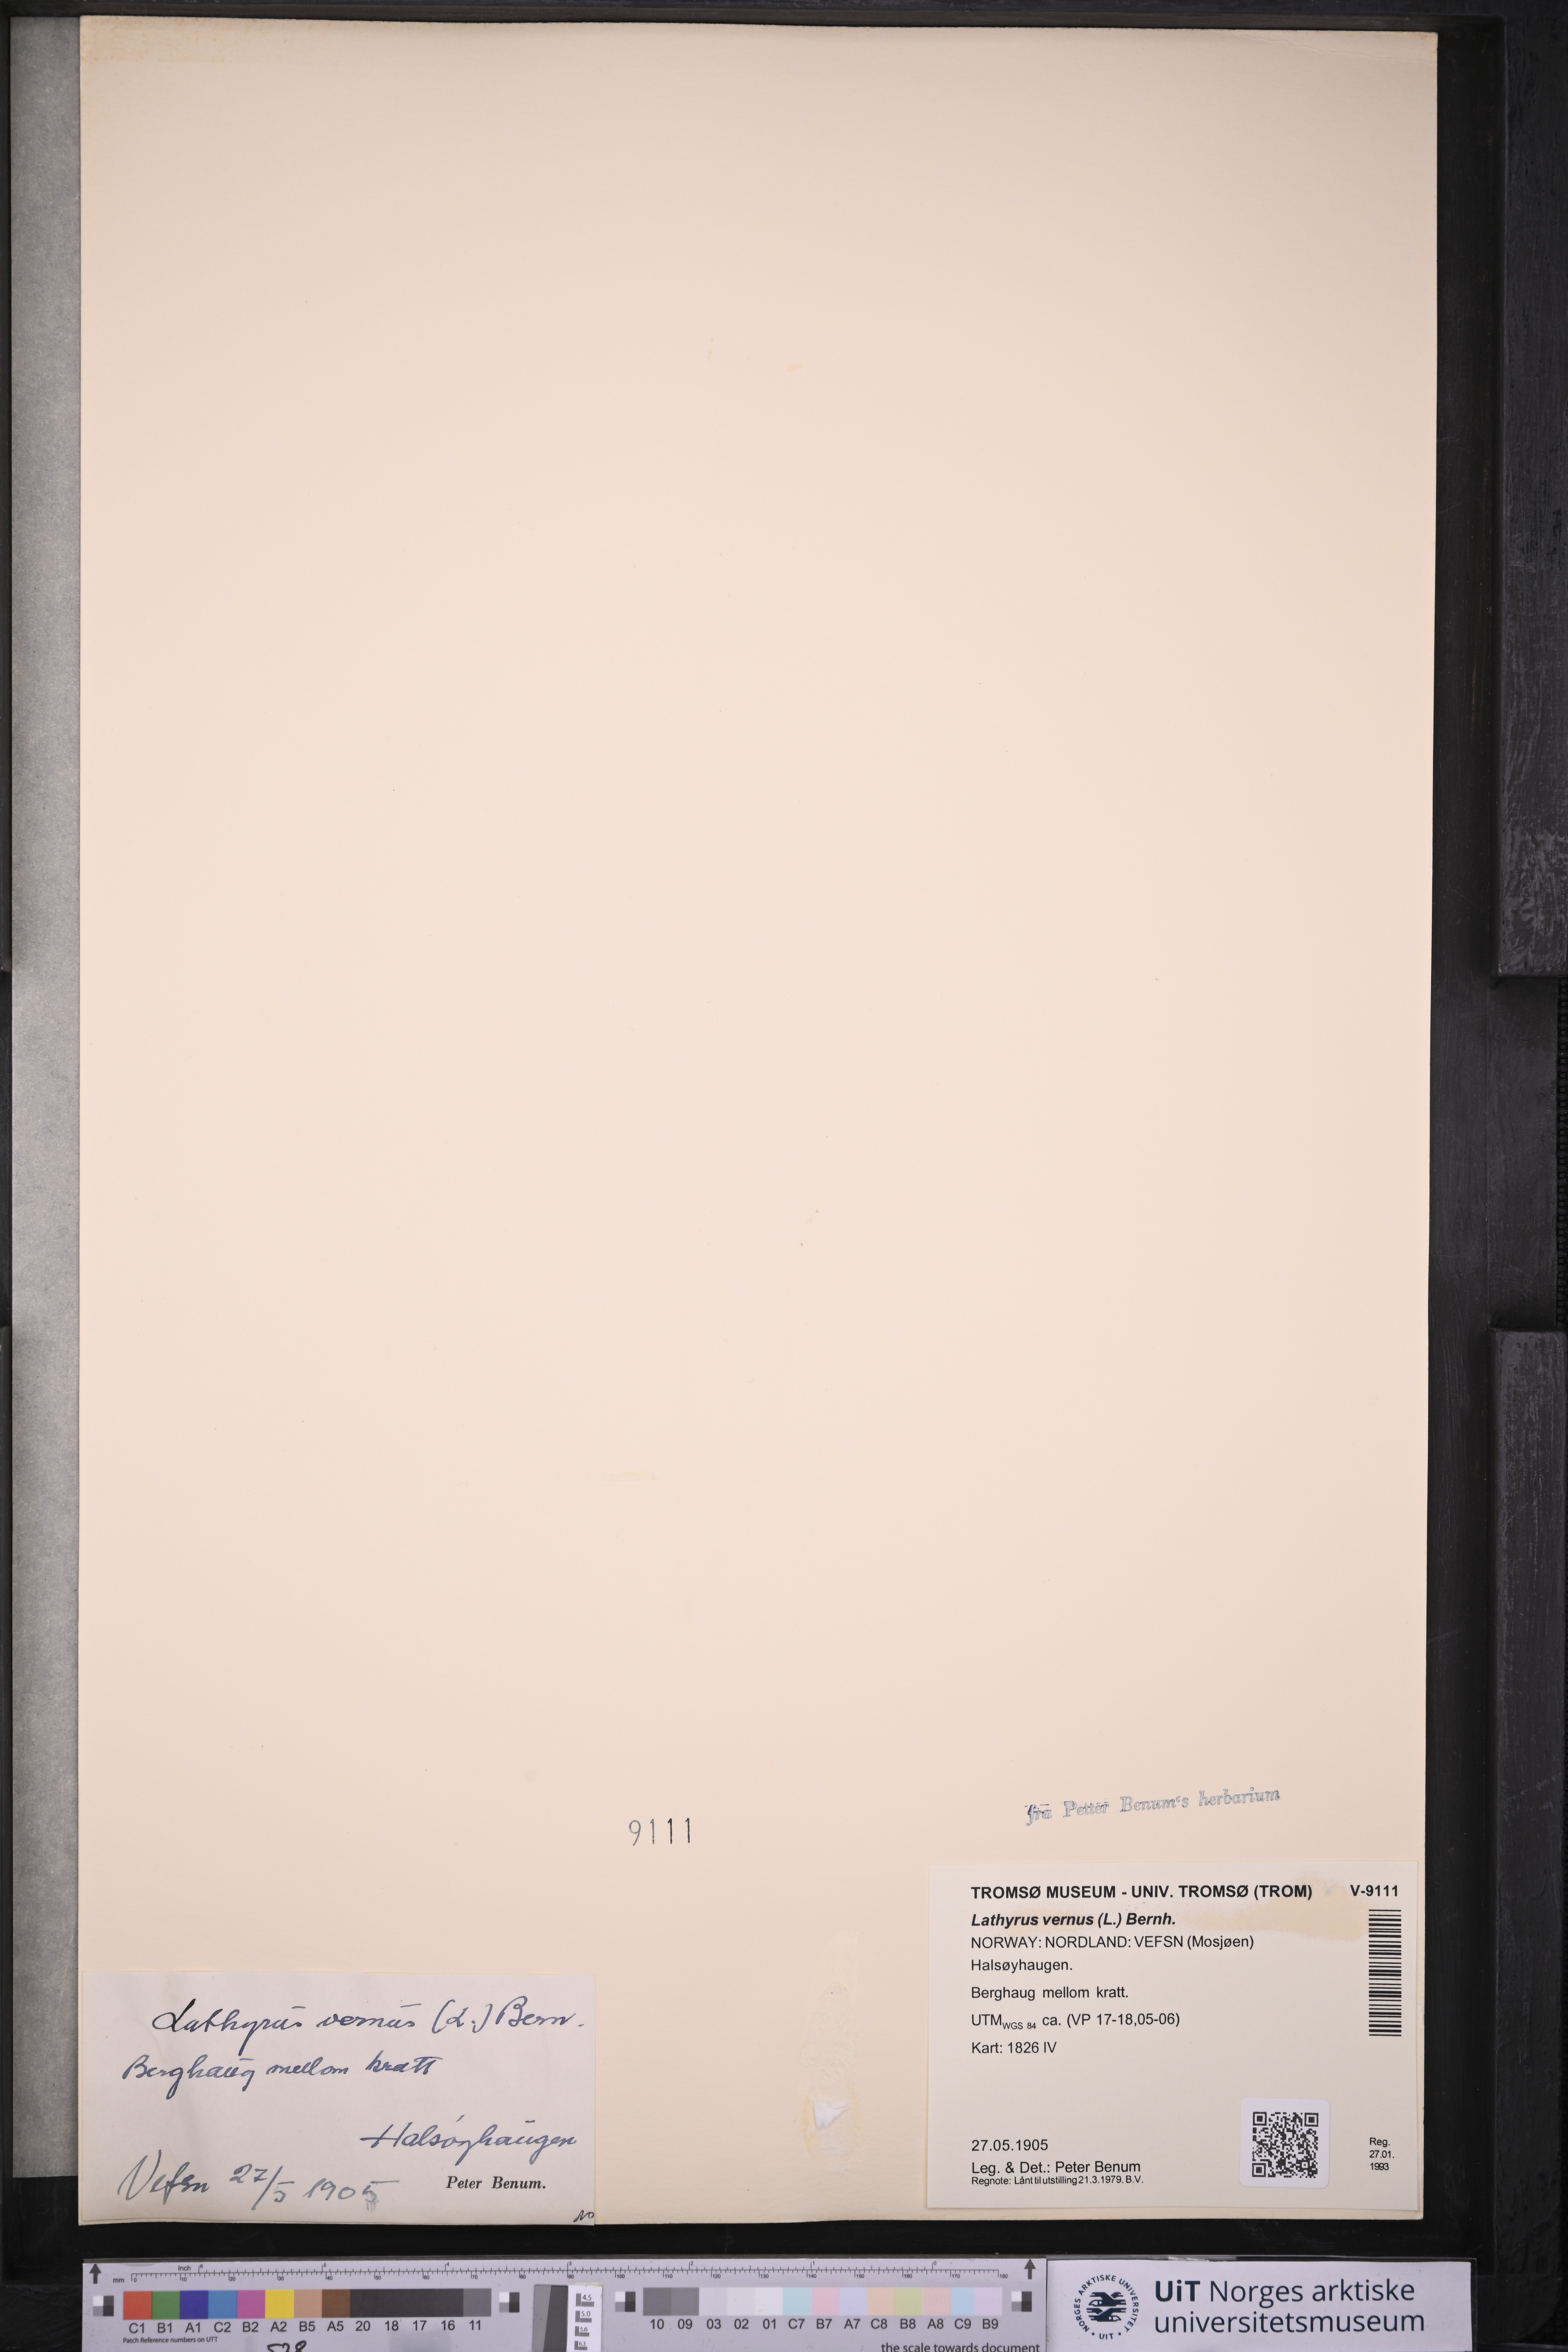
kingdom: Plantae
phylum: Tracheophyta
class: Magnoliopsida
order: Fabales
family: Fabaceae
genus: Lathyrus
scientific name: Lathyrus vernus
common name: Spring pea
